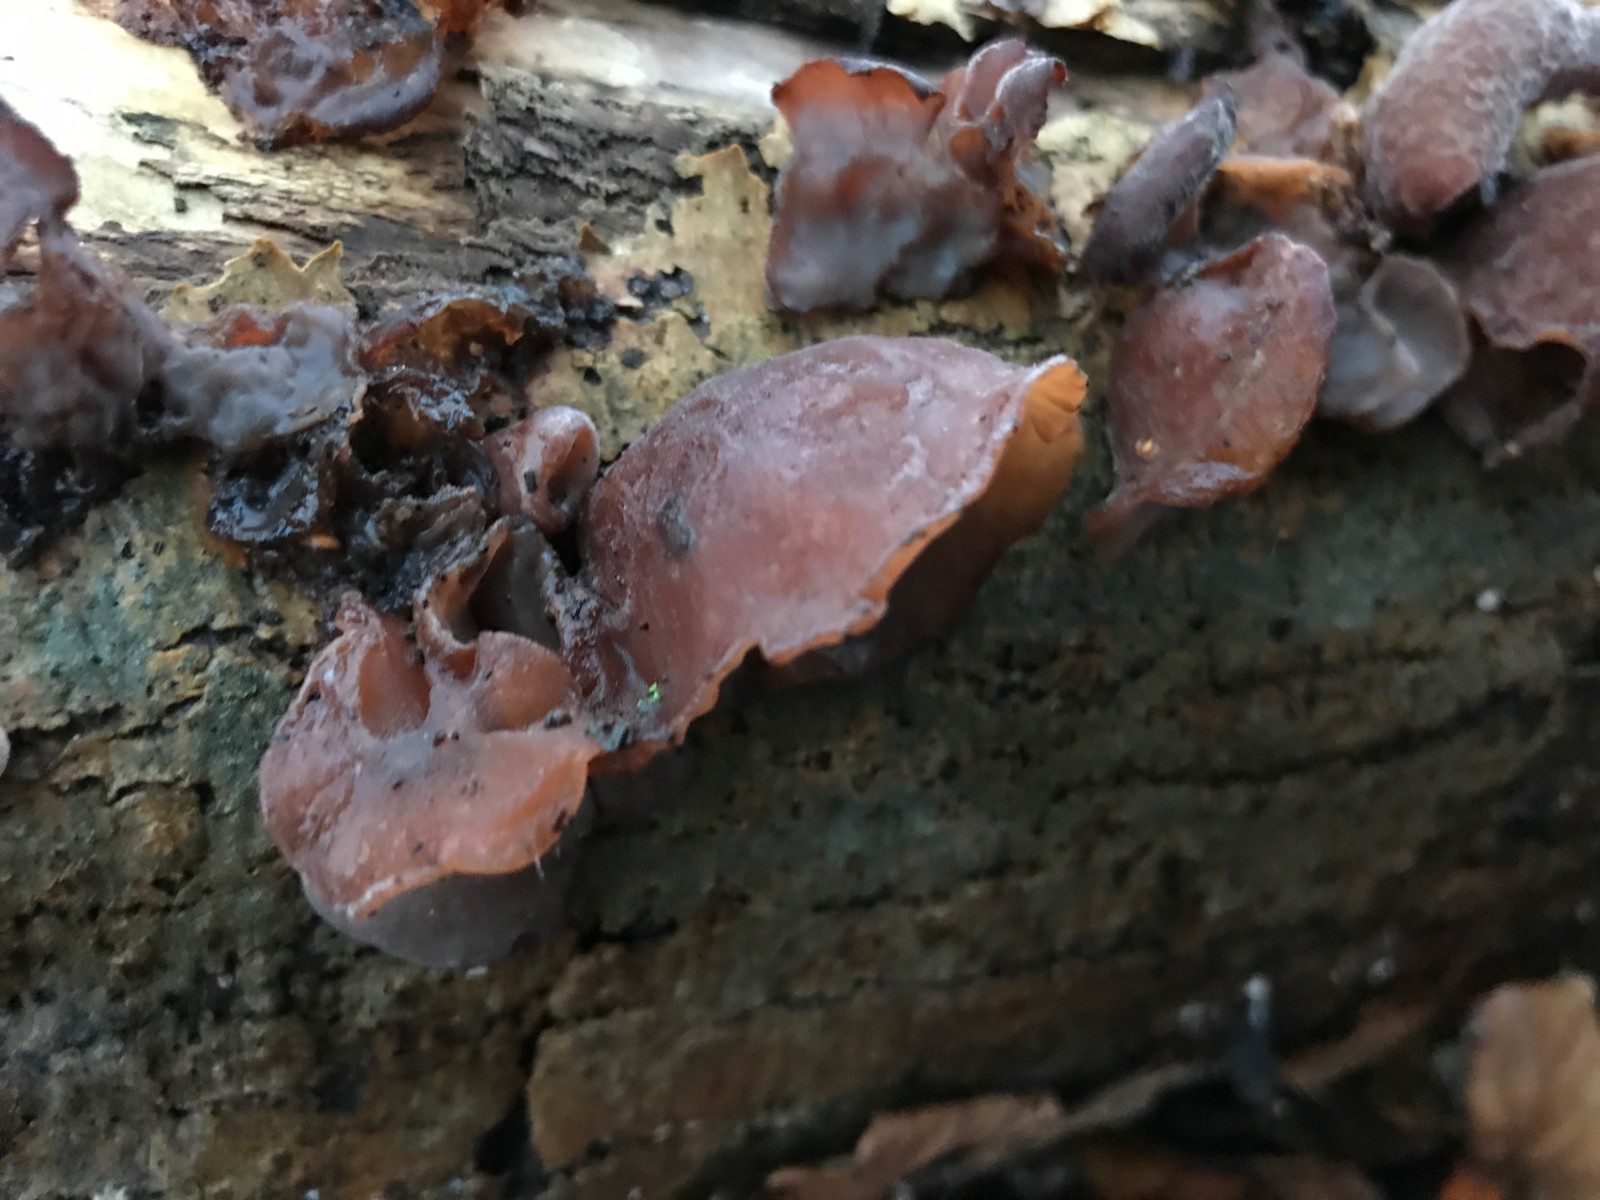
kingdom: Fungi
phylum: Basidiomycota
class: Agaricomycetes
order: Auriculariales
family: Auriculariaceae
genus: Auricularia
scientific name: Auricularia auricula-judae
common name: almindelig judasøre
